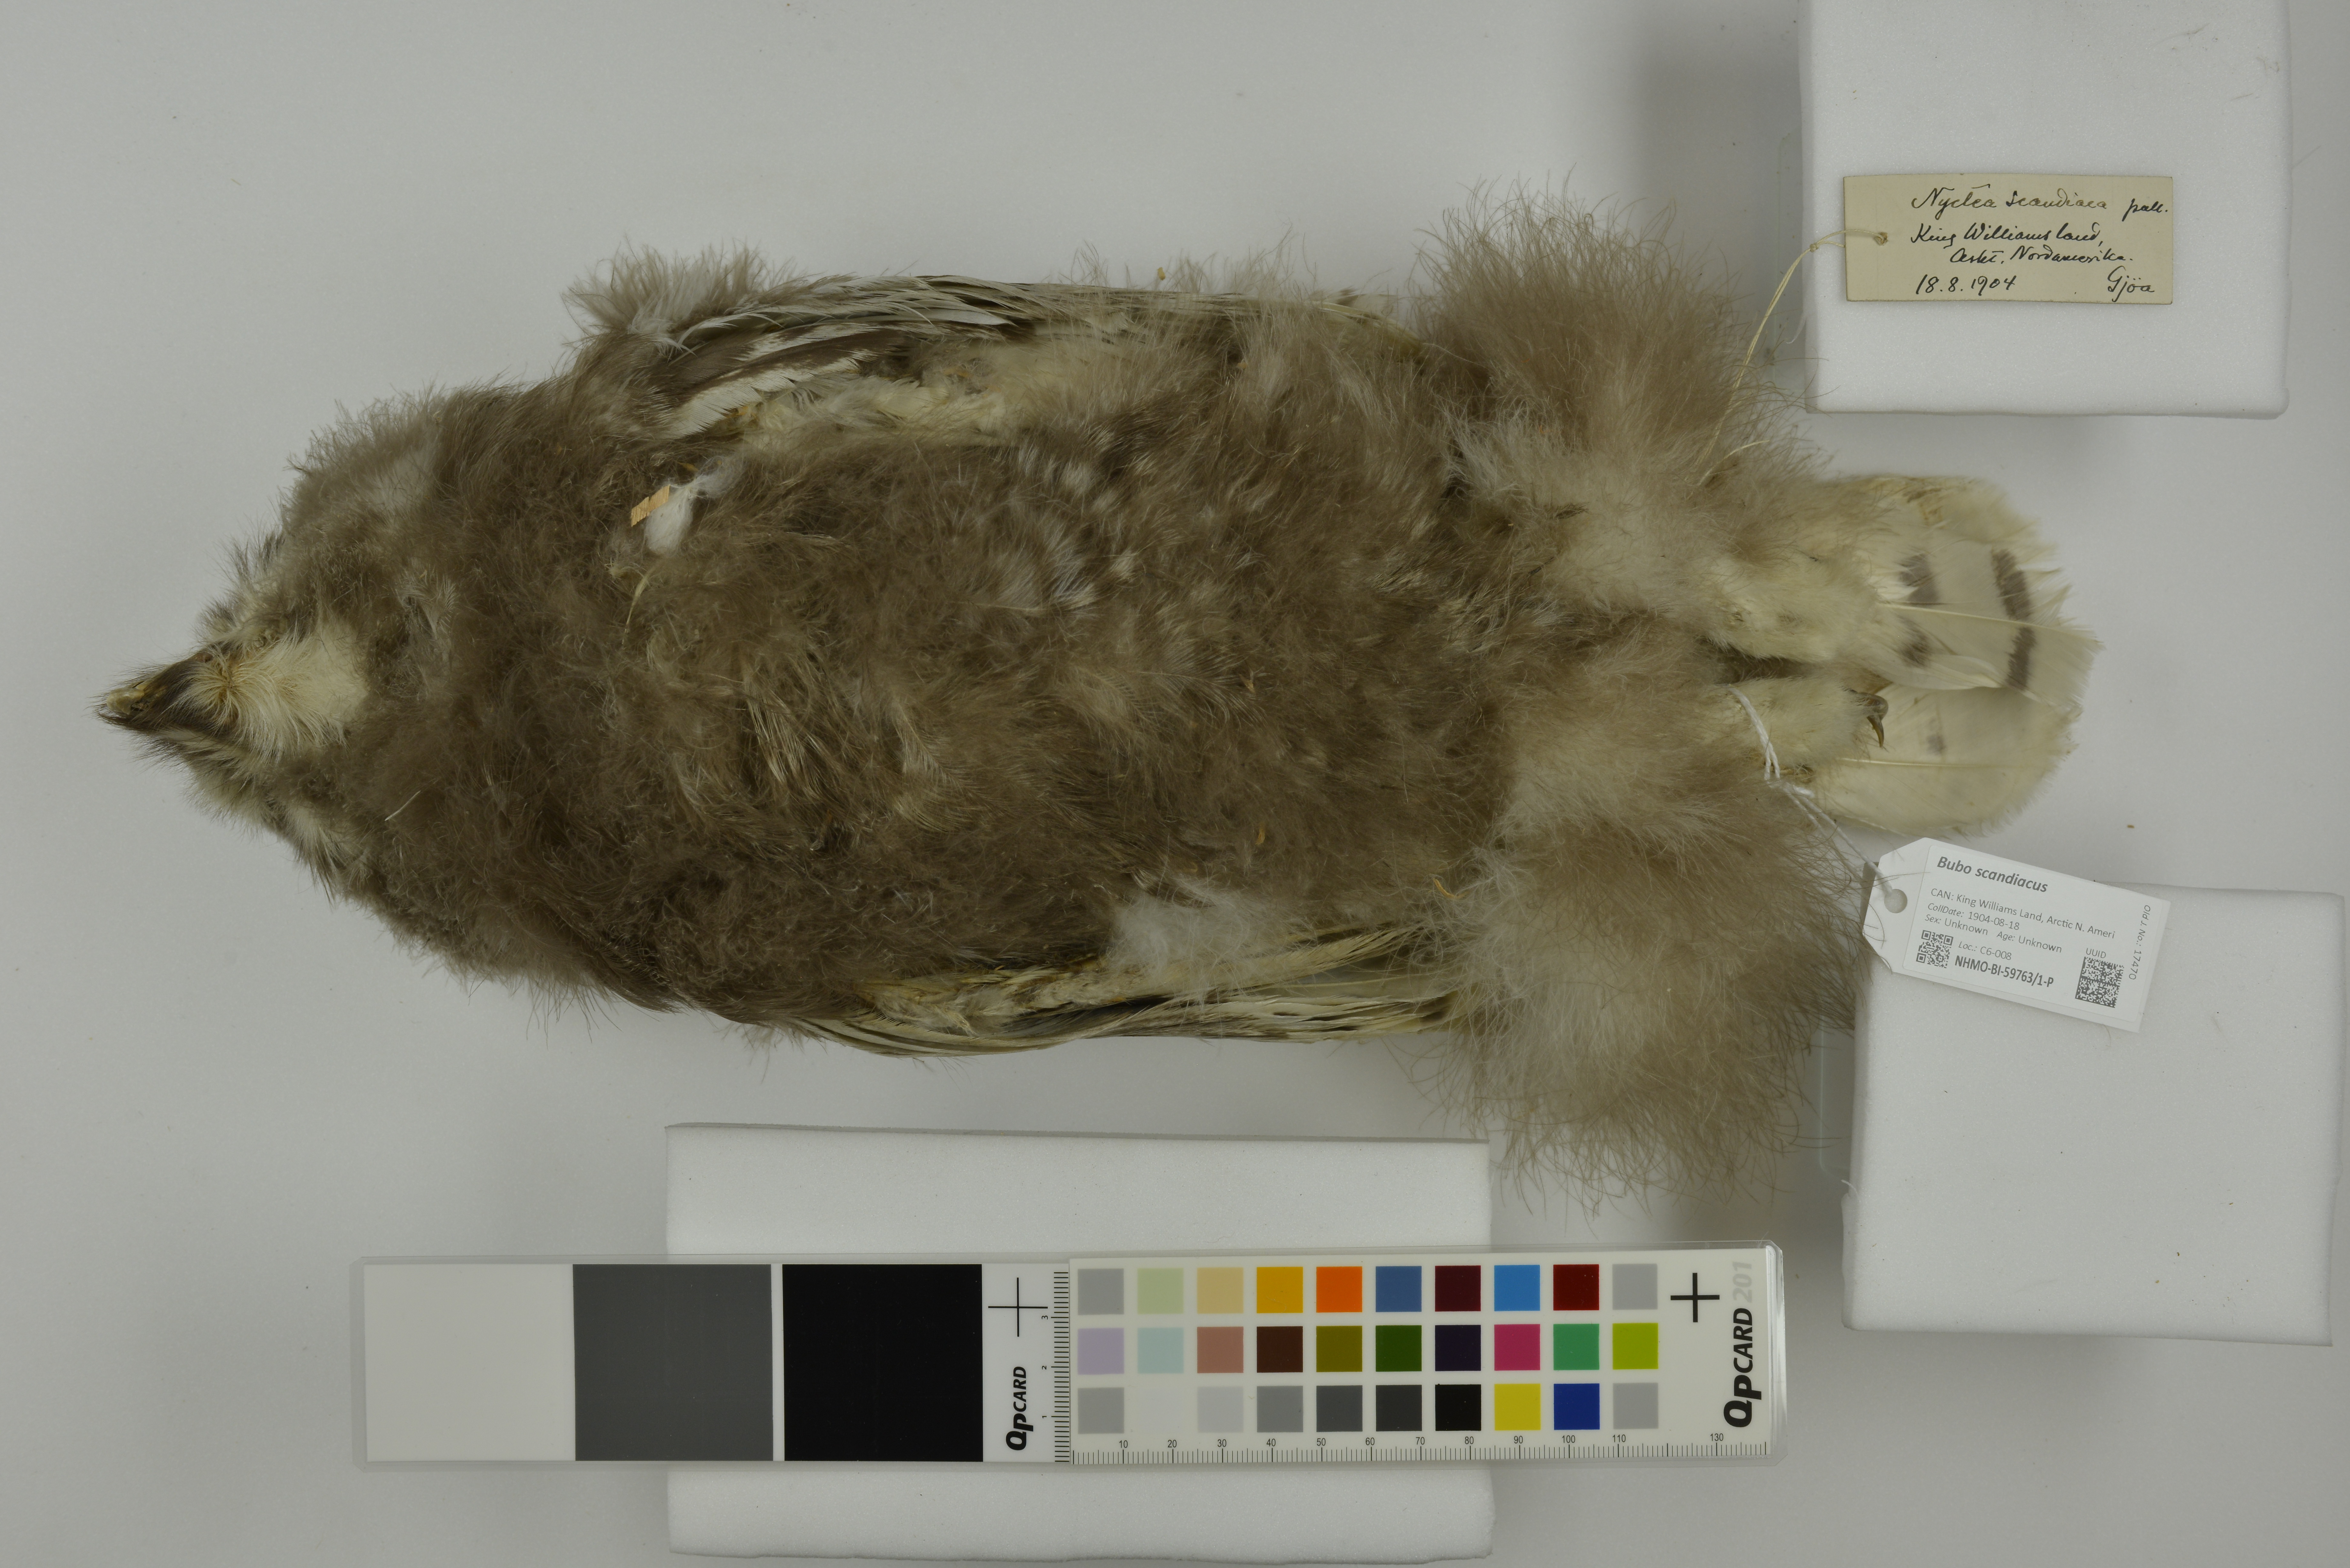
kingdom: Animalia
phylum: Chordata
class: Aves
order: Strigiformes
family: Strigidae
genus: Bubo
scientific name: Bubo scandiacus
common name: Snowy owl
